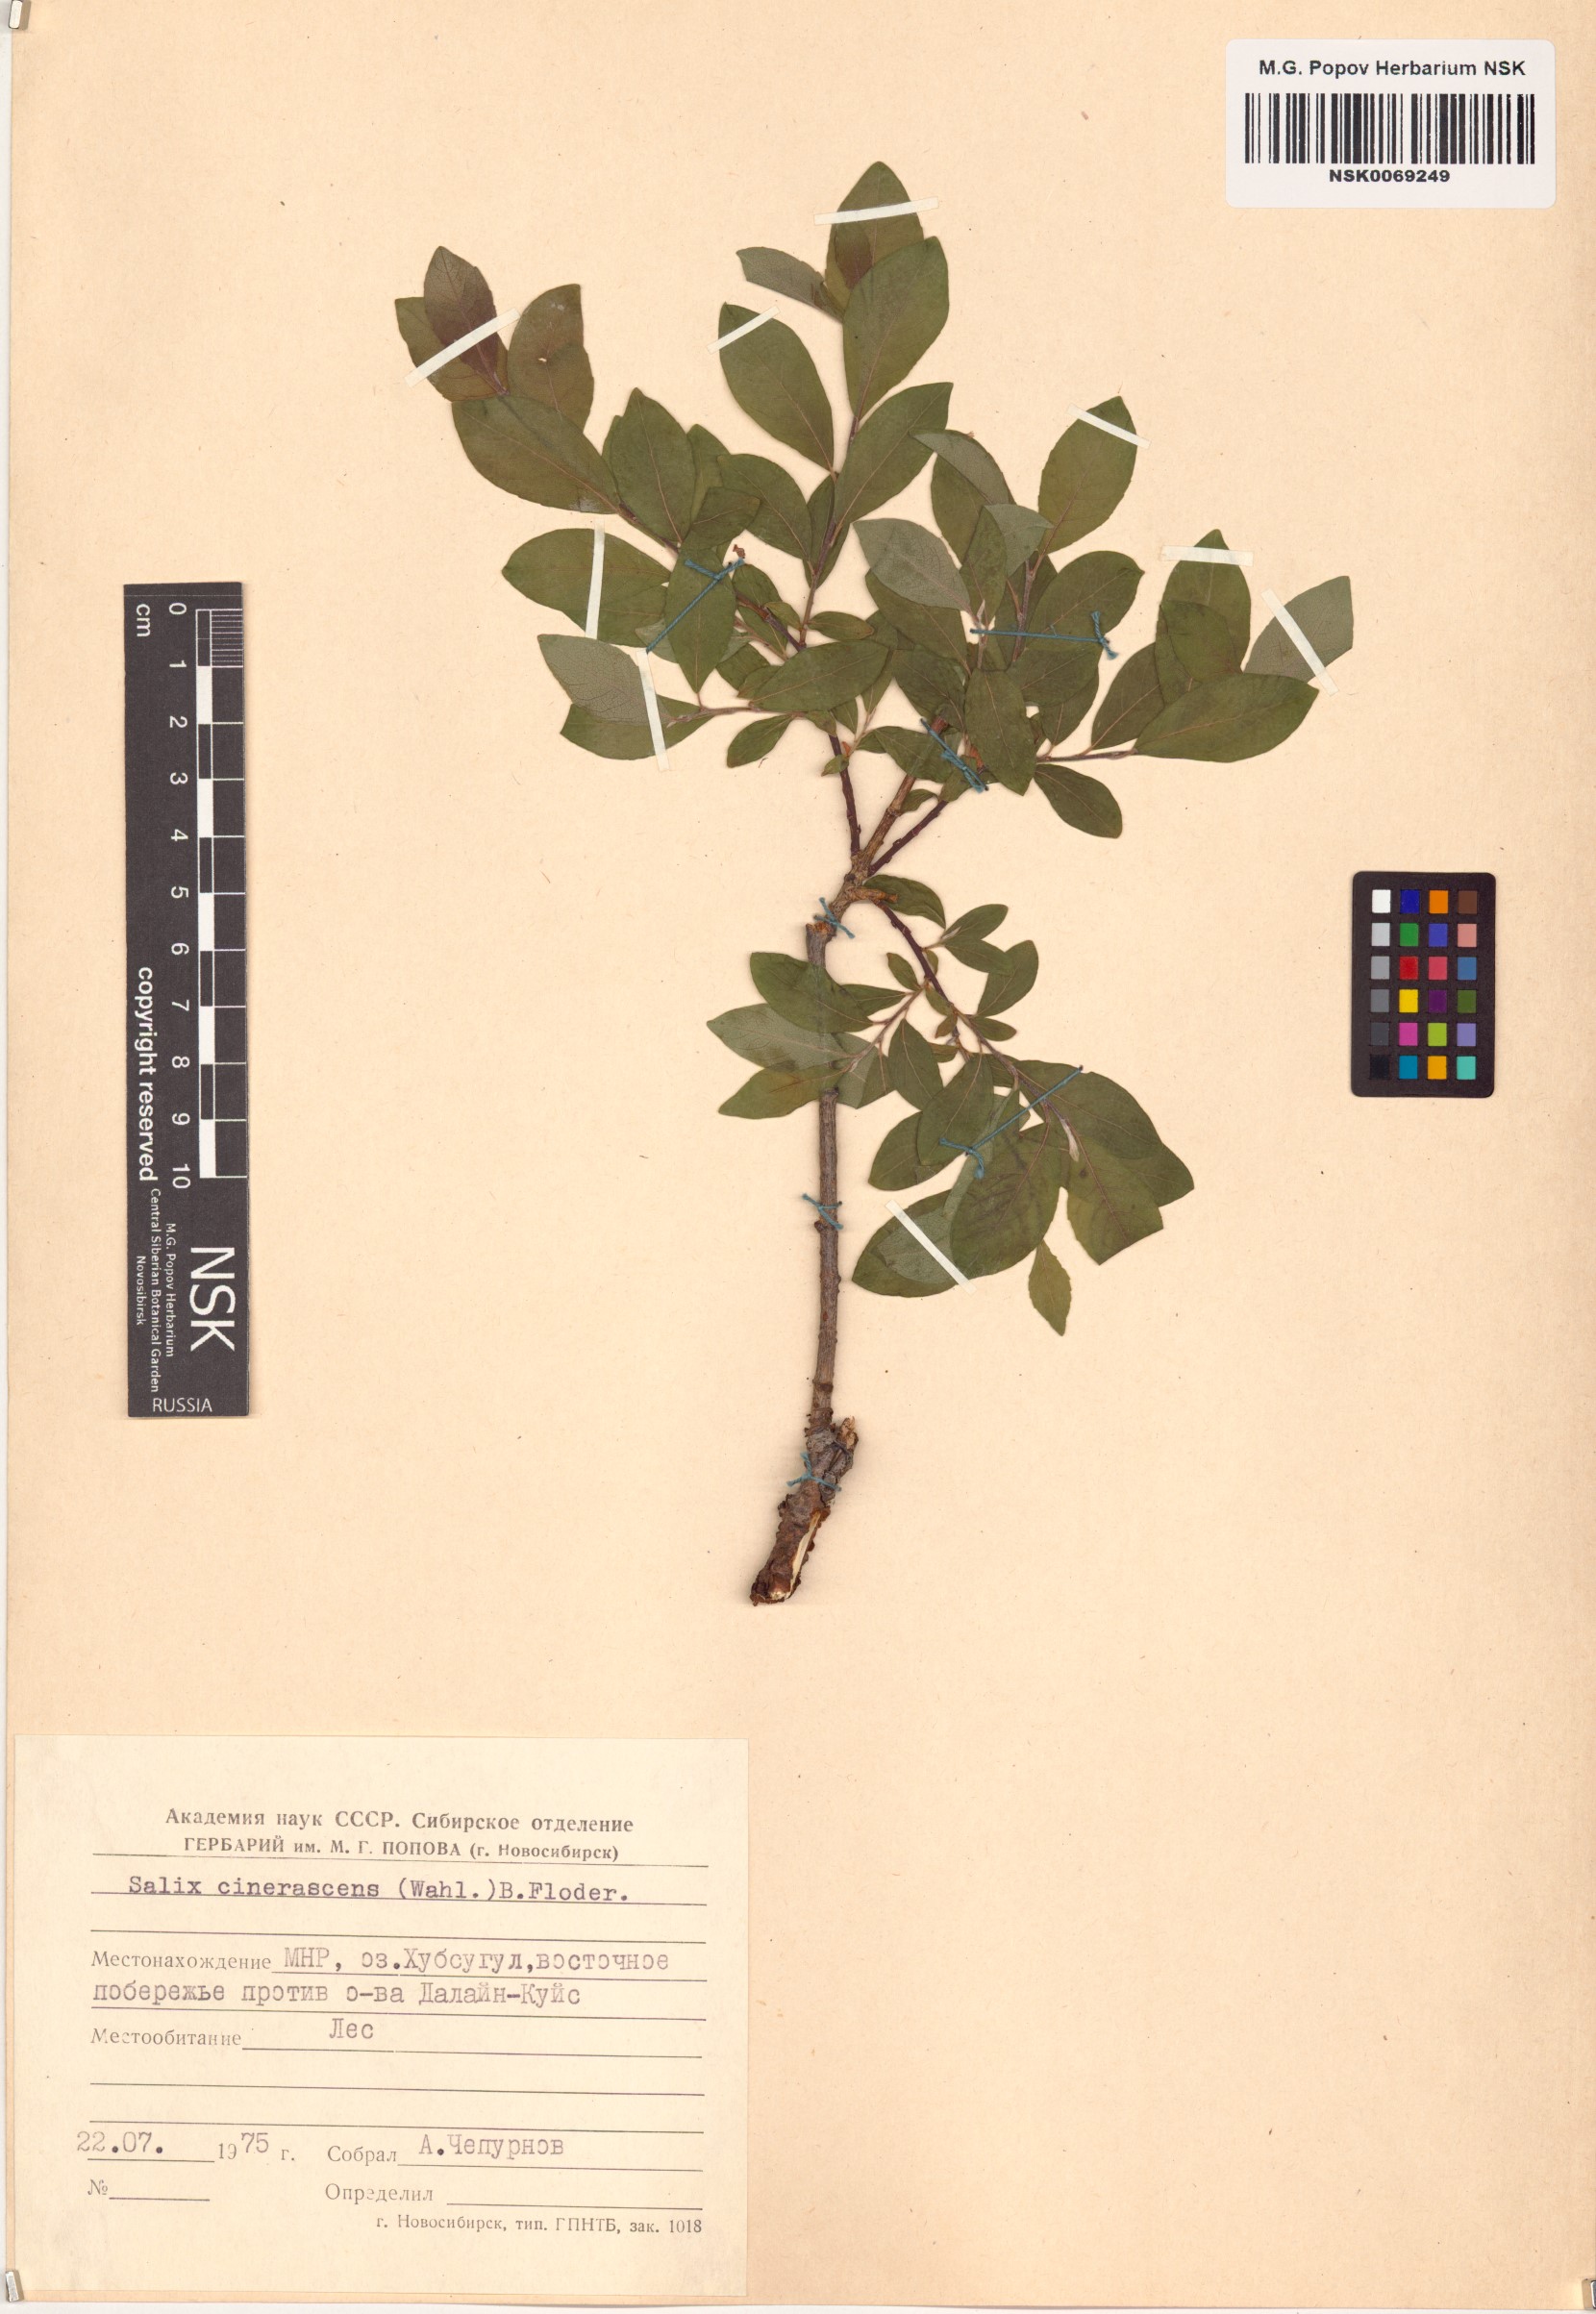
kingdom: Plantae
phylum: Tracheophyta
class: Magnoliopsida
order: Malpighiales
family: Salicaceae
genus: Salix
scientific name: Salix bebbiana
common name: Bebb's willow
